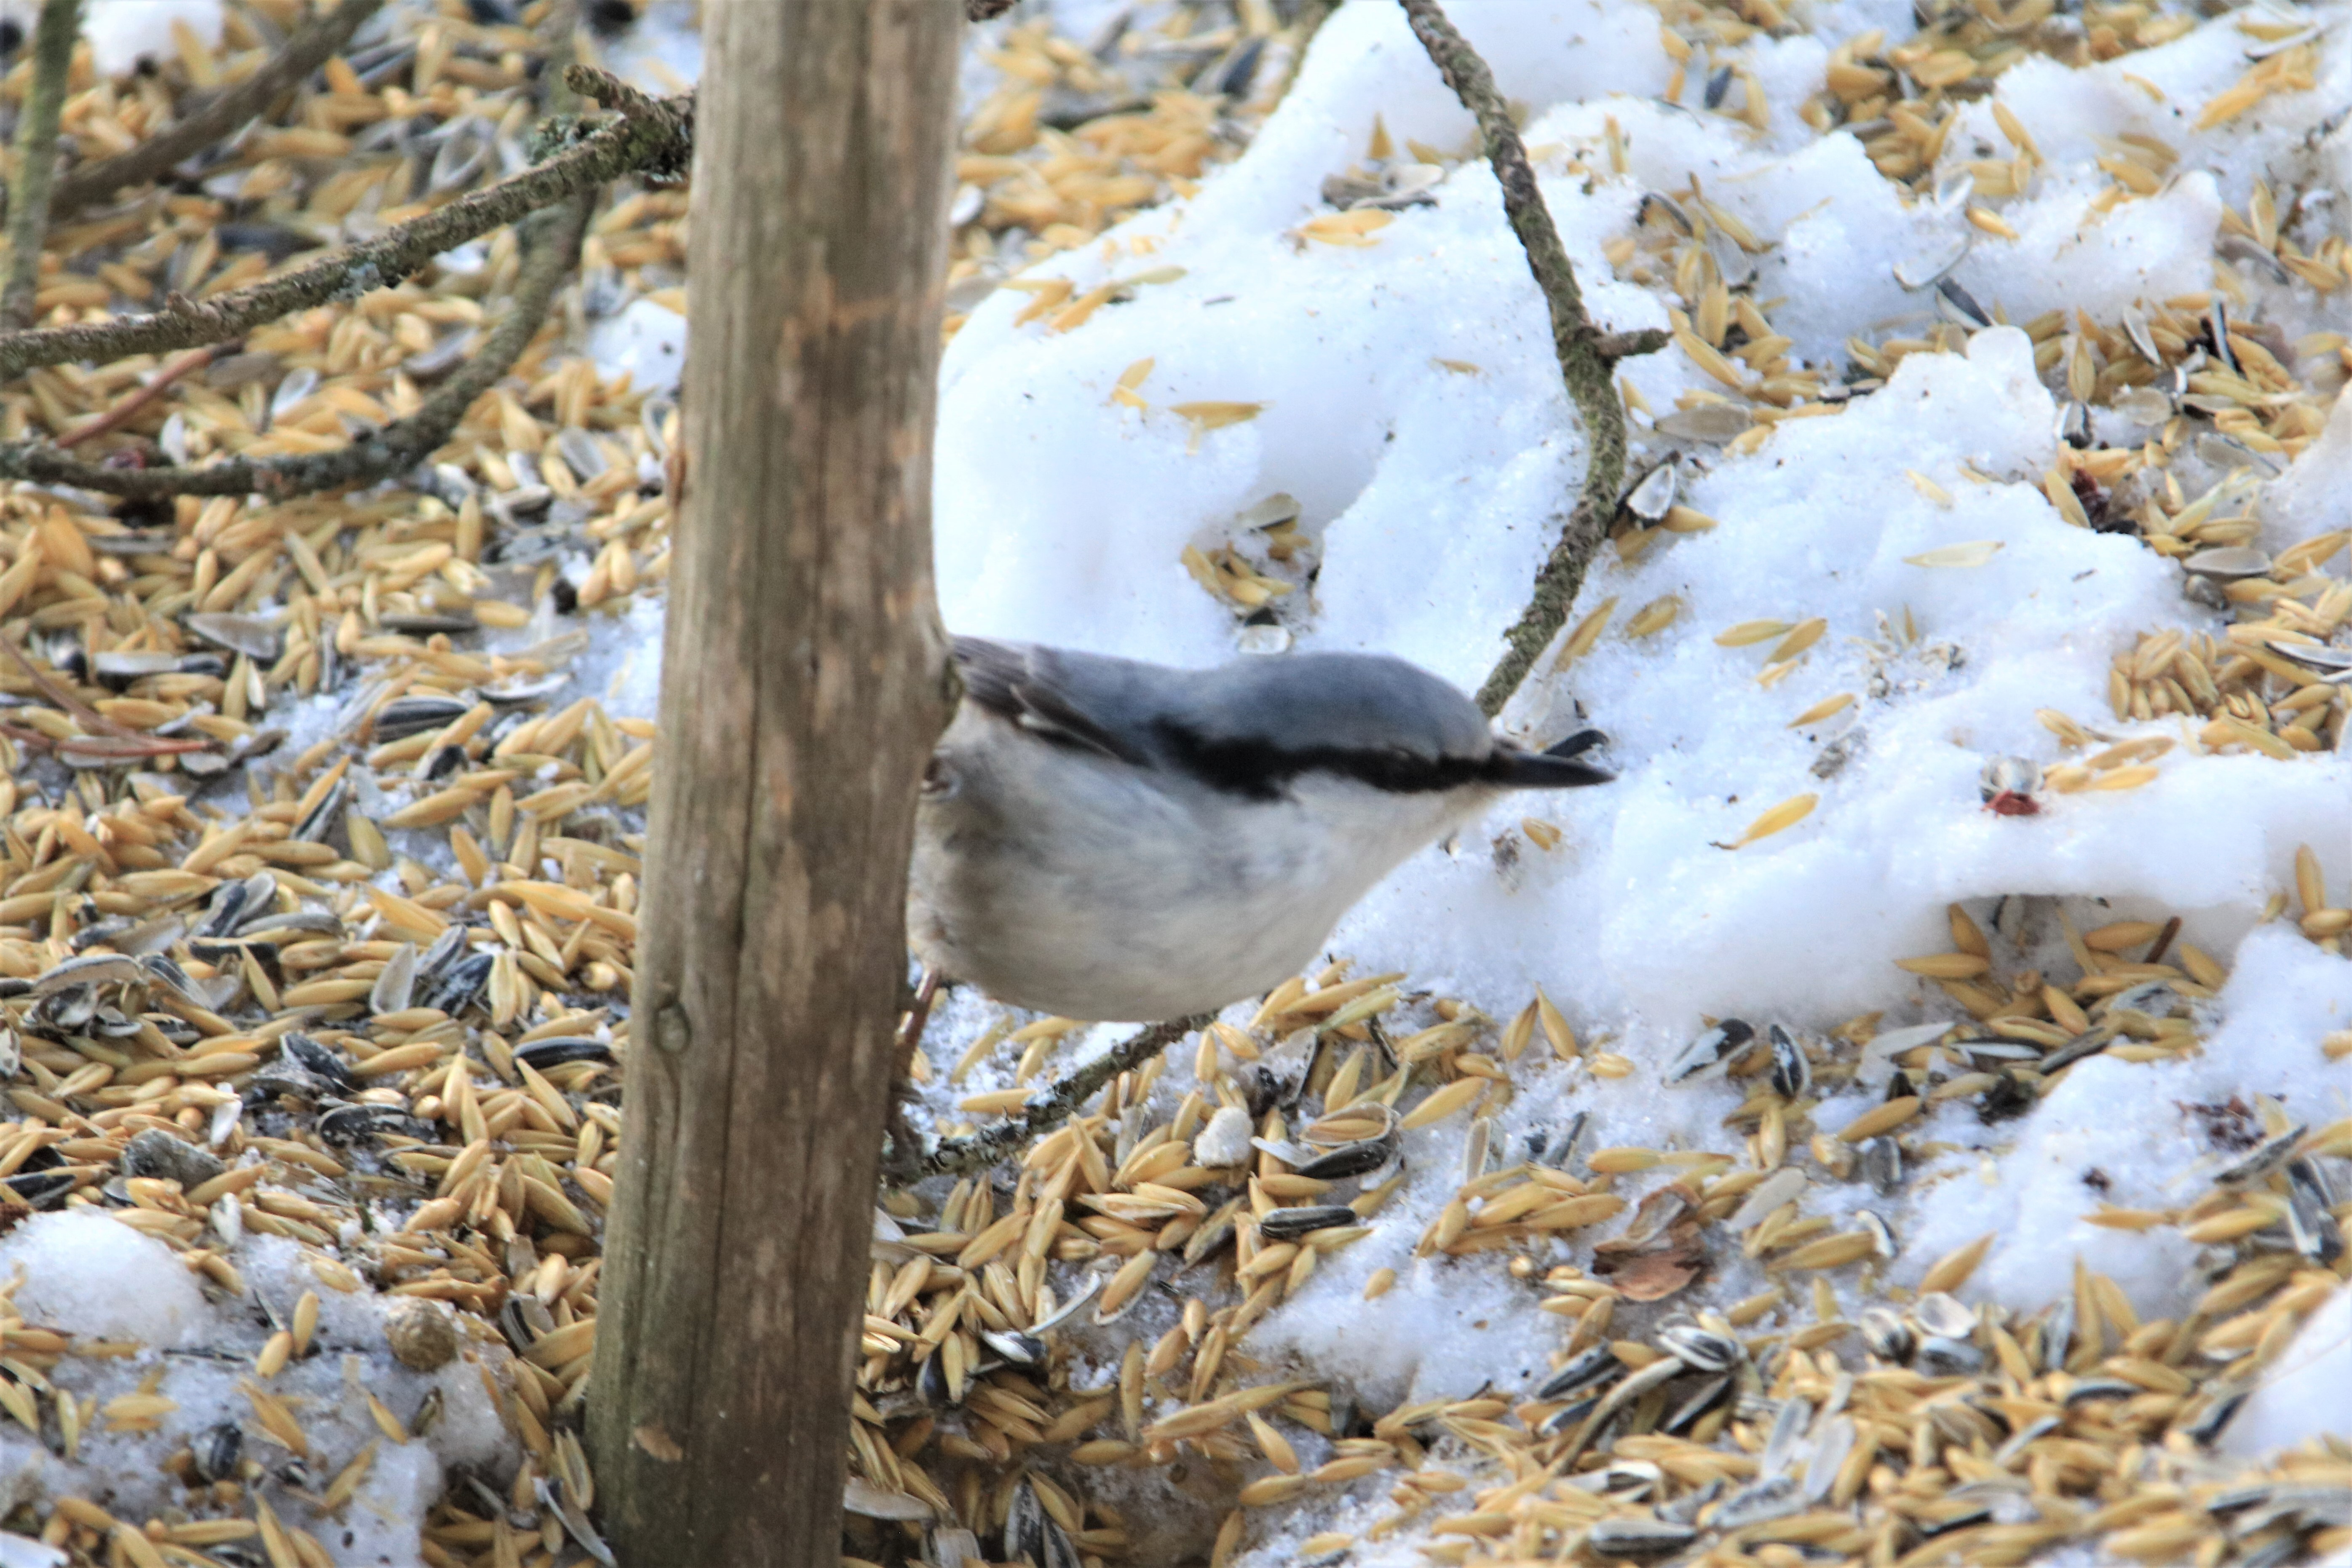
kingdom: Animalia
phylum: Chordata
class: Aves
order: Passeriformes
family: Sittidae
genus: Sitta
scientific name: Sitta europaea
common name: Eurasian nuthatch
